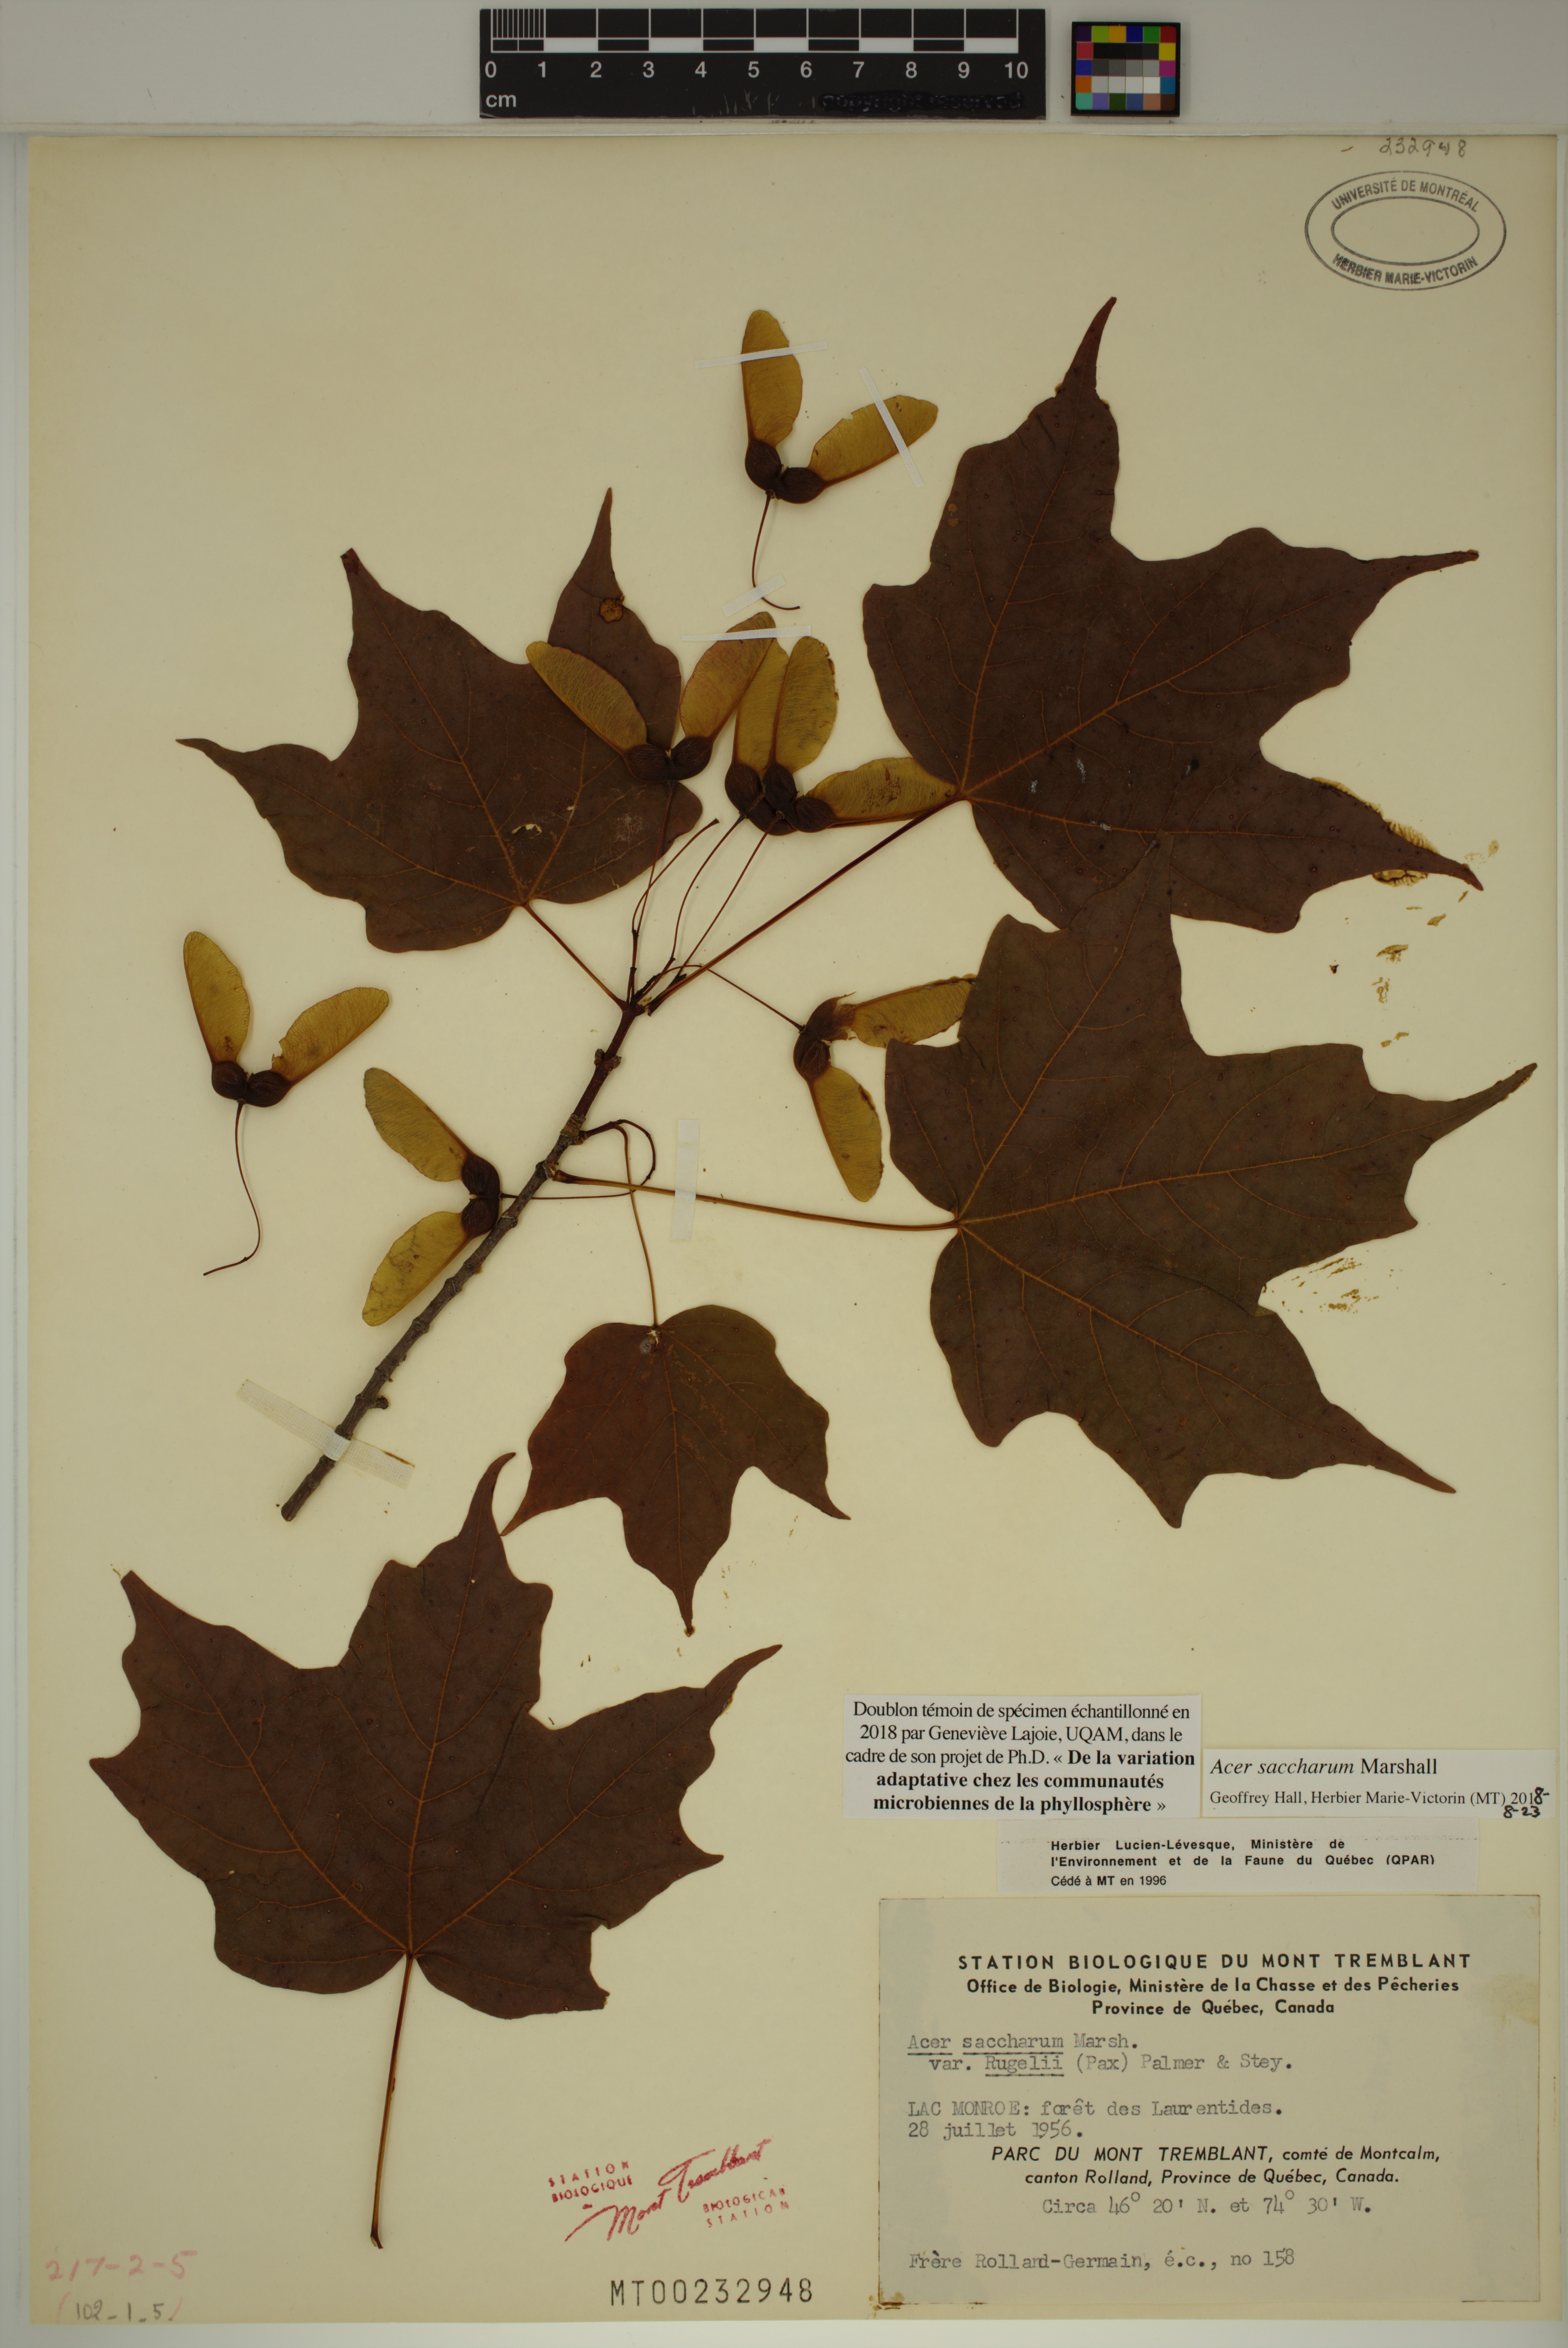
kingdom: Plantae
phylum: Tracheophyta
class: Magnoliopsida
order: Sapindales
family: Sapindaceae
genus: Acer
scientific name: Acer saccharum
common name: Sugar maple
